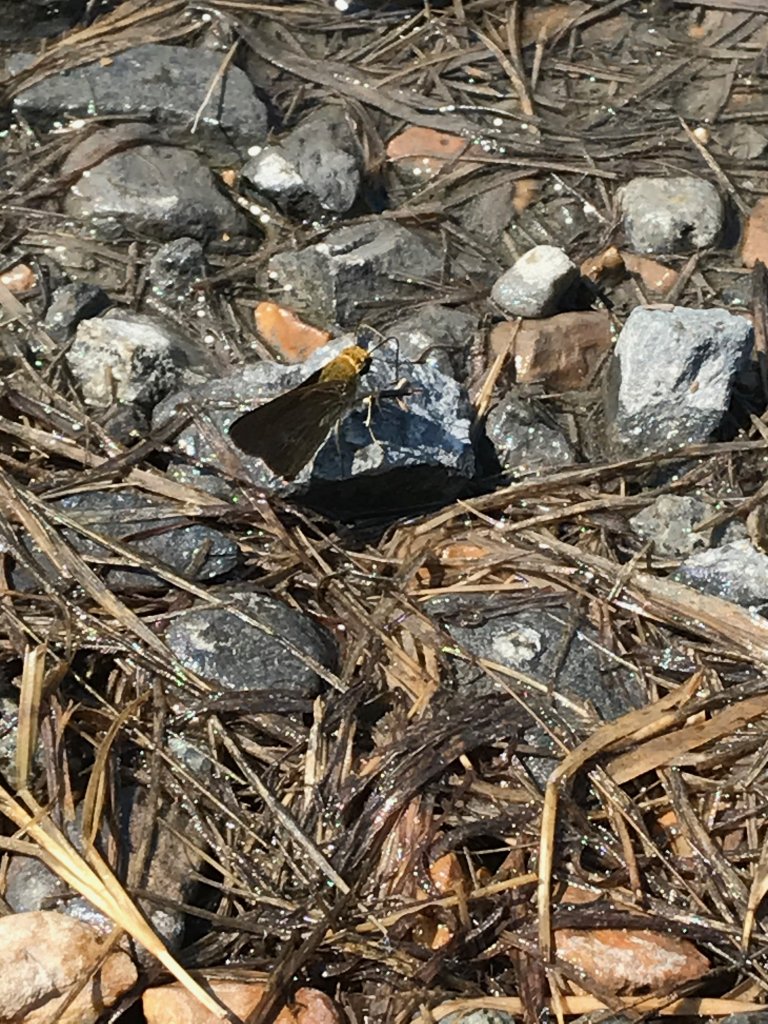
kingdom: Animalia
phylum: Arthropoda
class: Insecta
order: Lepidoptera
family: Hesperiidae
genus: Euphyes
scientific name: Euphyes vestris
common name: Dun Skipper
